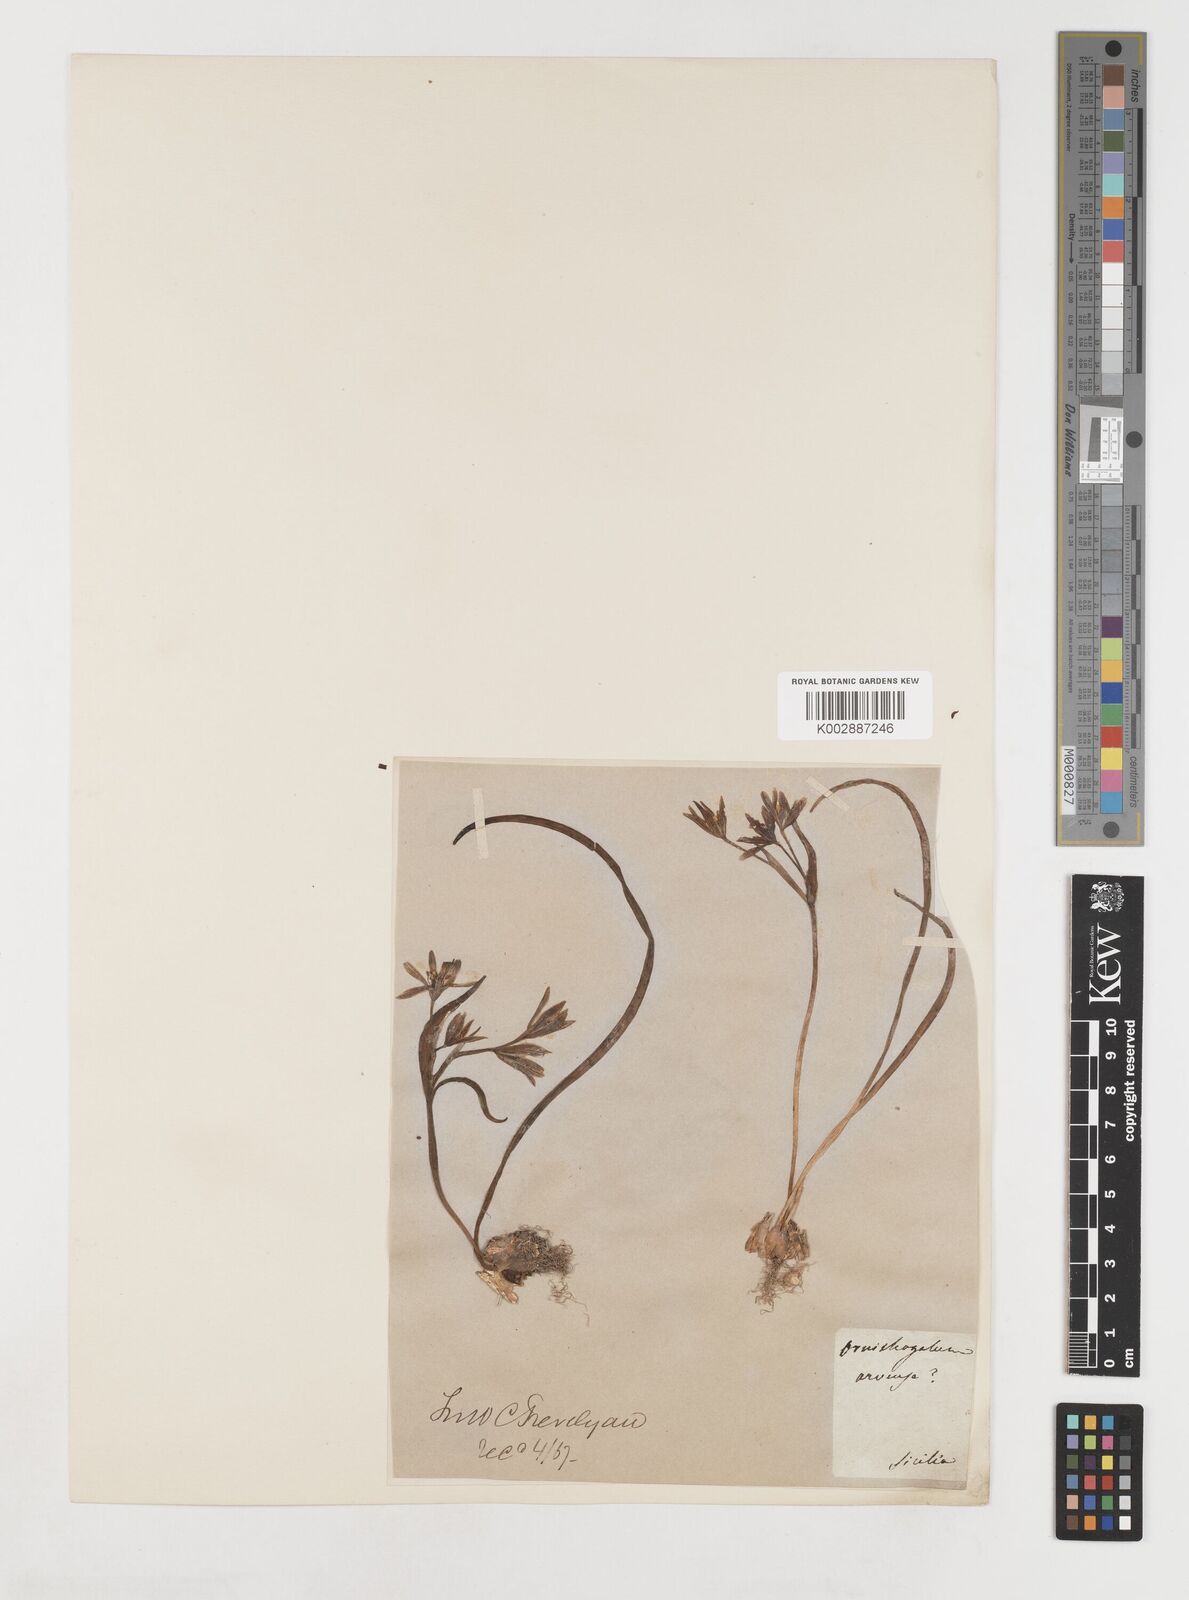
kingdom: Plantae
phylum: Tracheophyta
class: Liliopsida
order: Liliales
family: Liliaceae
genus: Gagea
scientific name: Gagea bohemica
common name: Early star-of-bethlehem
